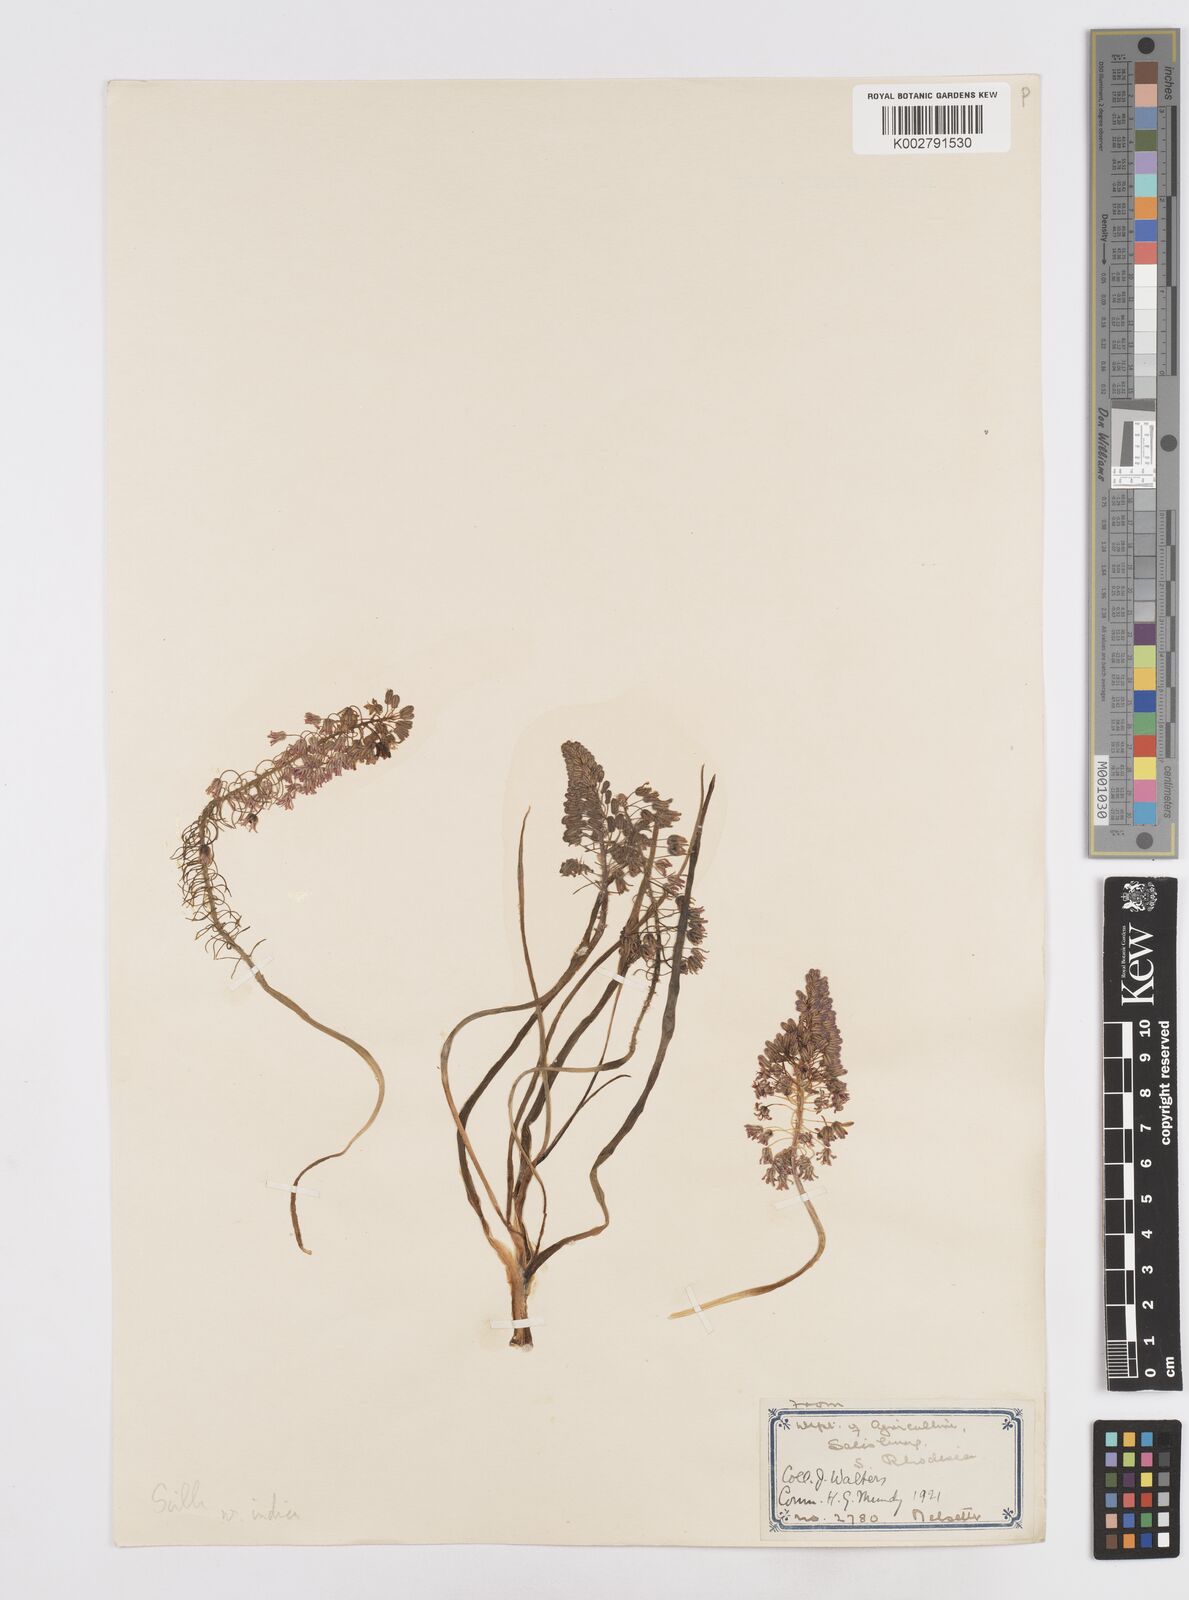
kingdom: Plantae
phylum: Tracheophyta
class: Liliopsida
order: Asparagales
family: Asparagaceae
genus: Scilla
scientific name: Scilla
